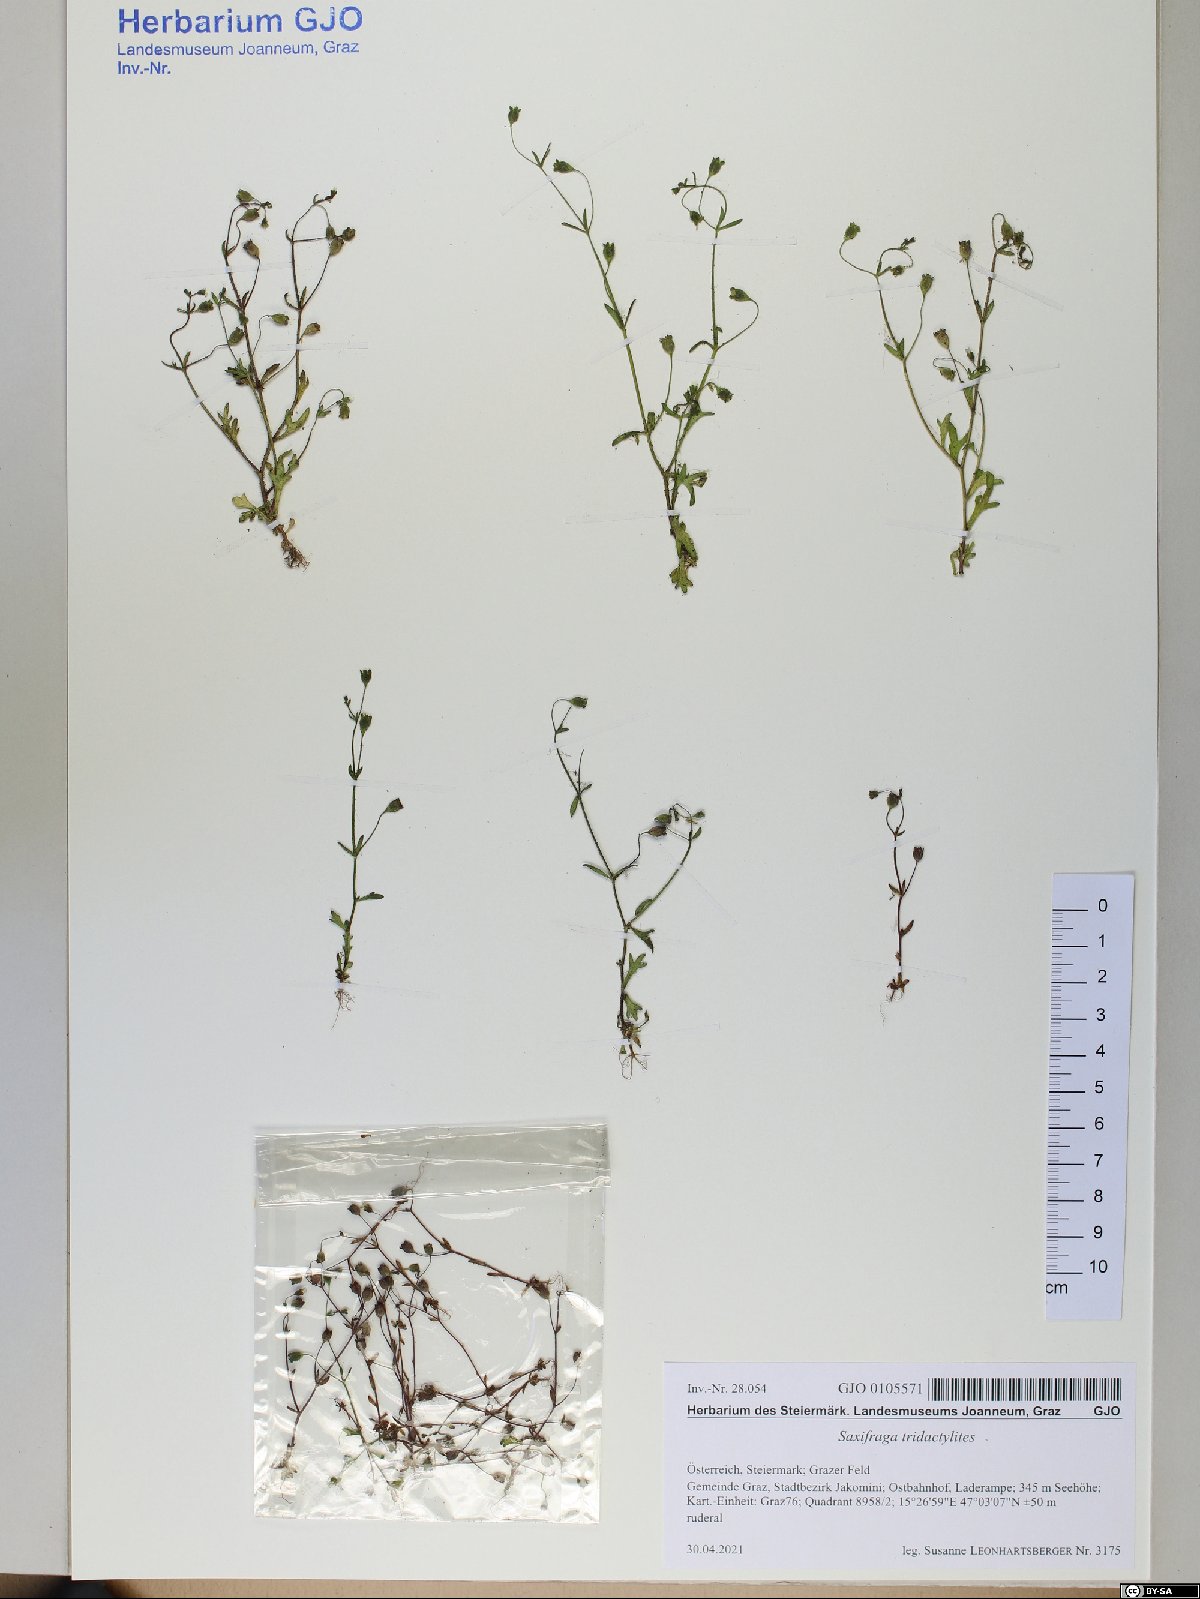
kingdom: Plantae
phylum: Tracheophyta
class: Magnoliopsida
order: Saxifragales
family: Saxifragaceae
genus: Saxifraga
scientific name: Saxifraga tridactylites
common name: Rue-leaved saxifrage
